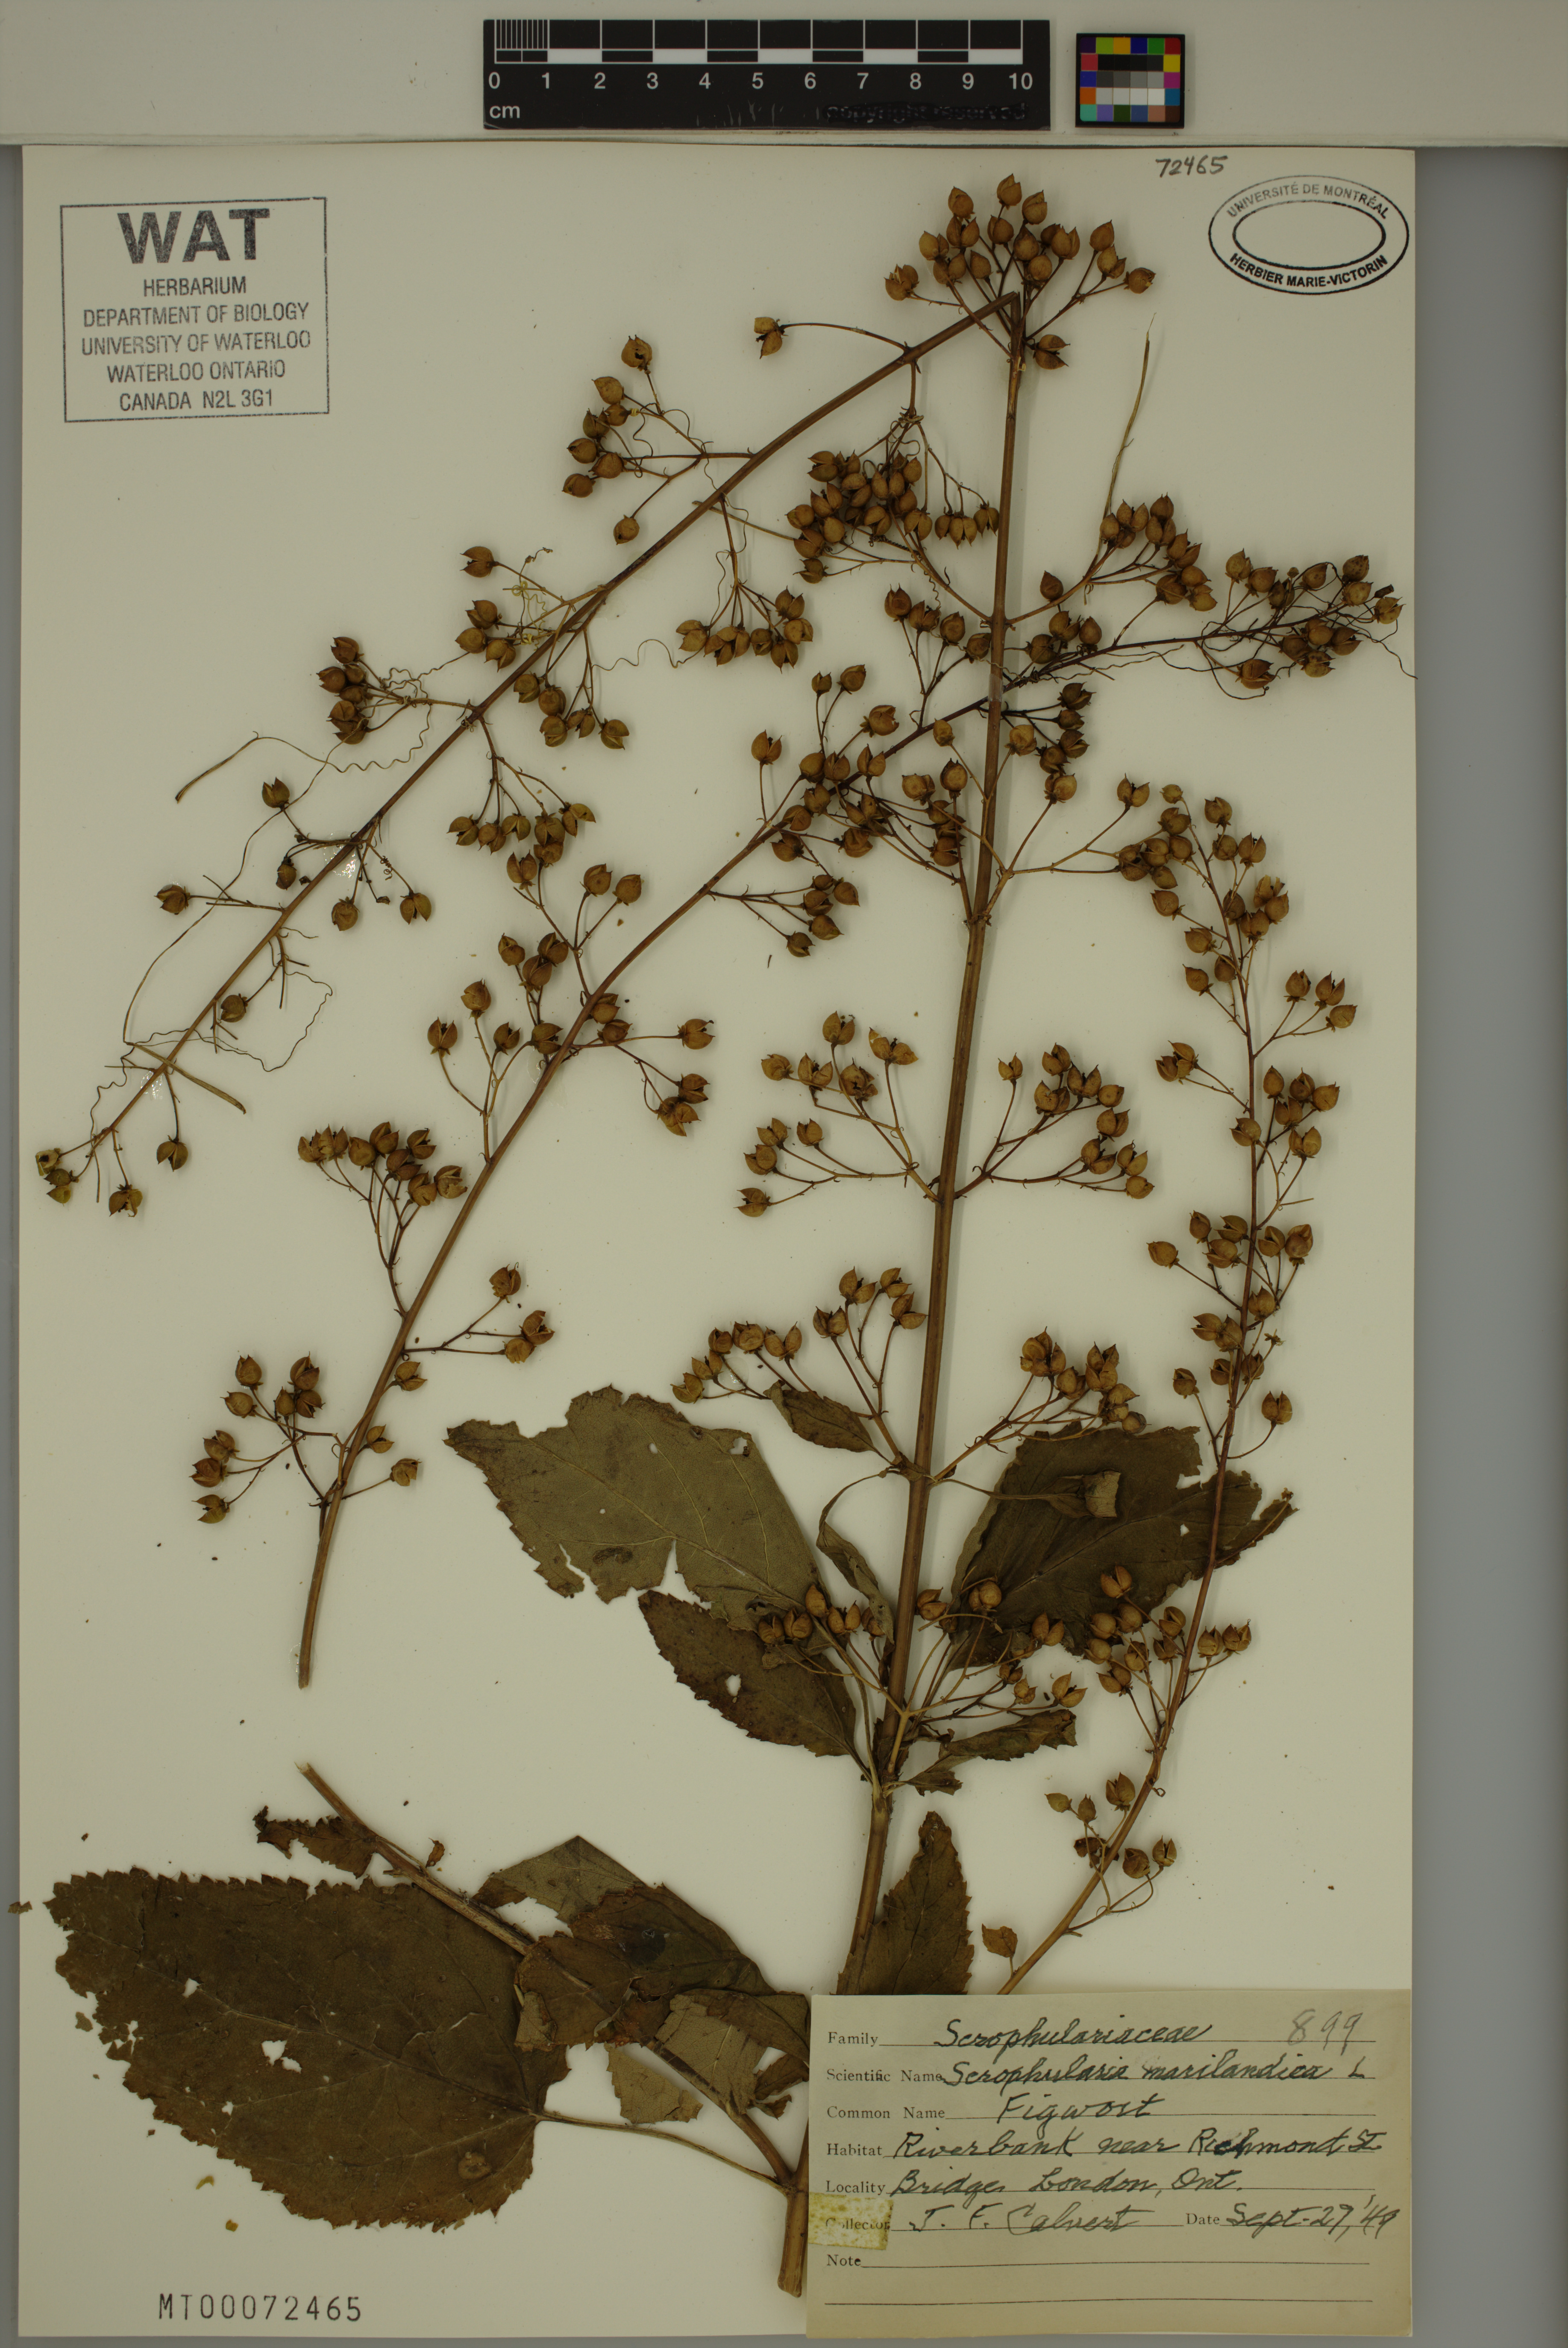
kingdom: Plantae
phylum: Tracheophyta
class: Magnoliopsida
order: Lamiales
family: Scrophulariaceae
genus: Scrophularia
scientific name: Scrophularia marilandica
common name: Eastern figwort
